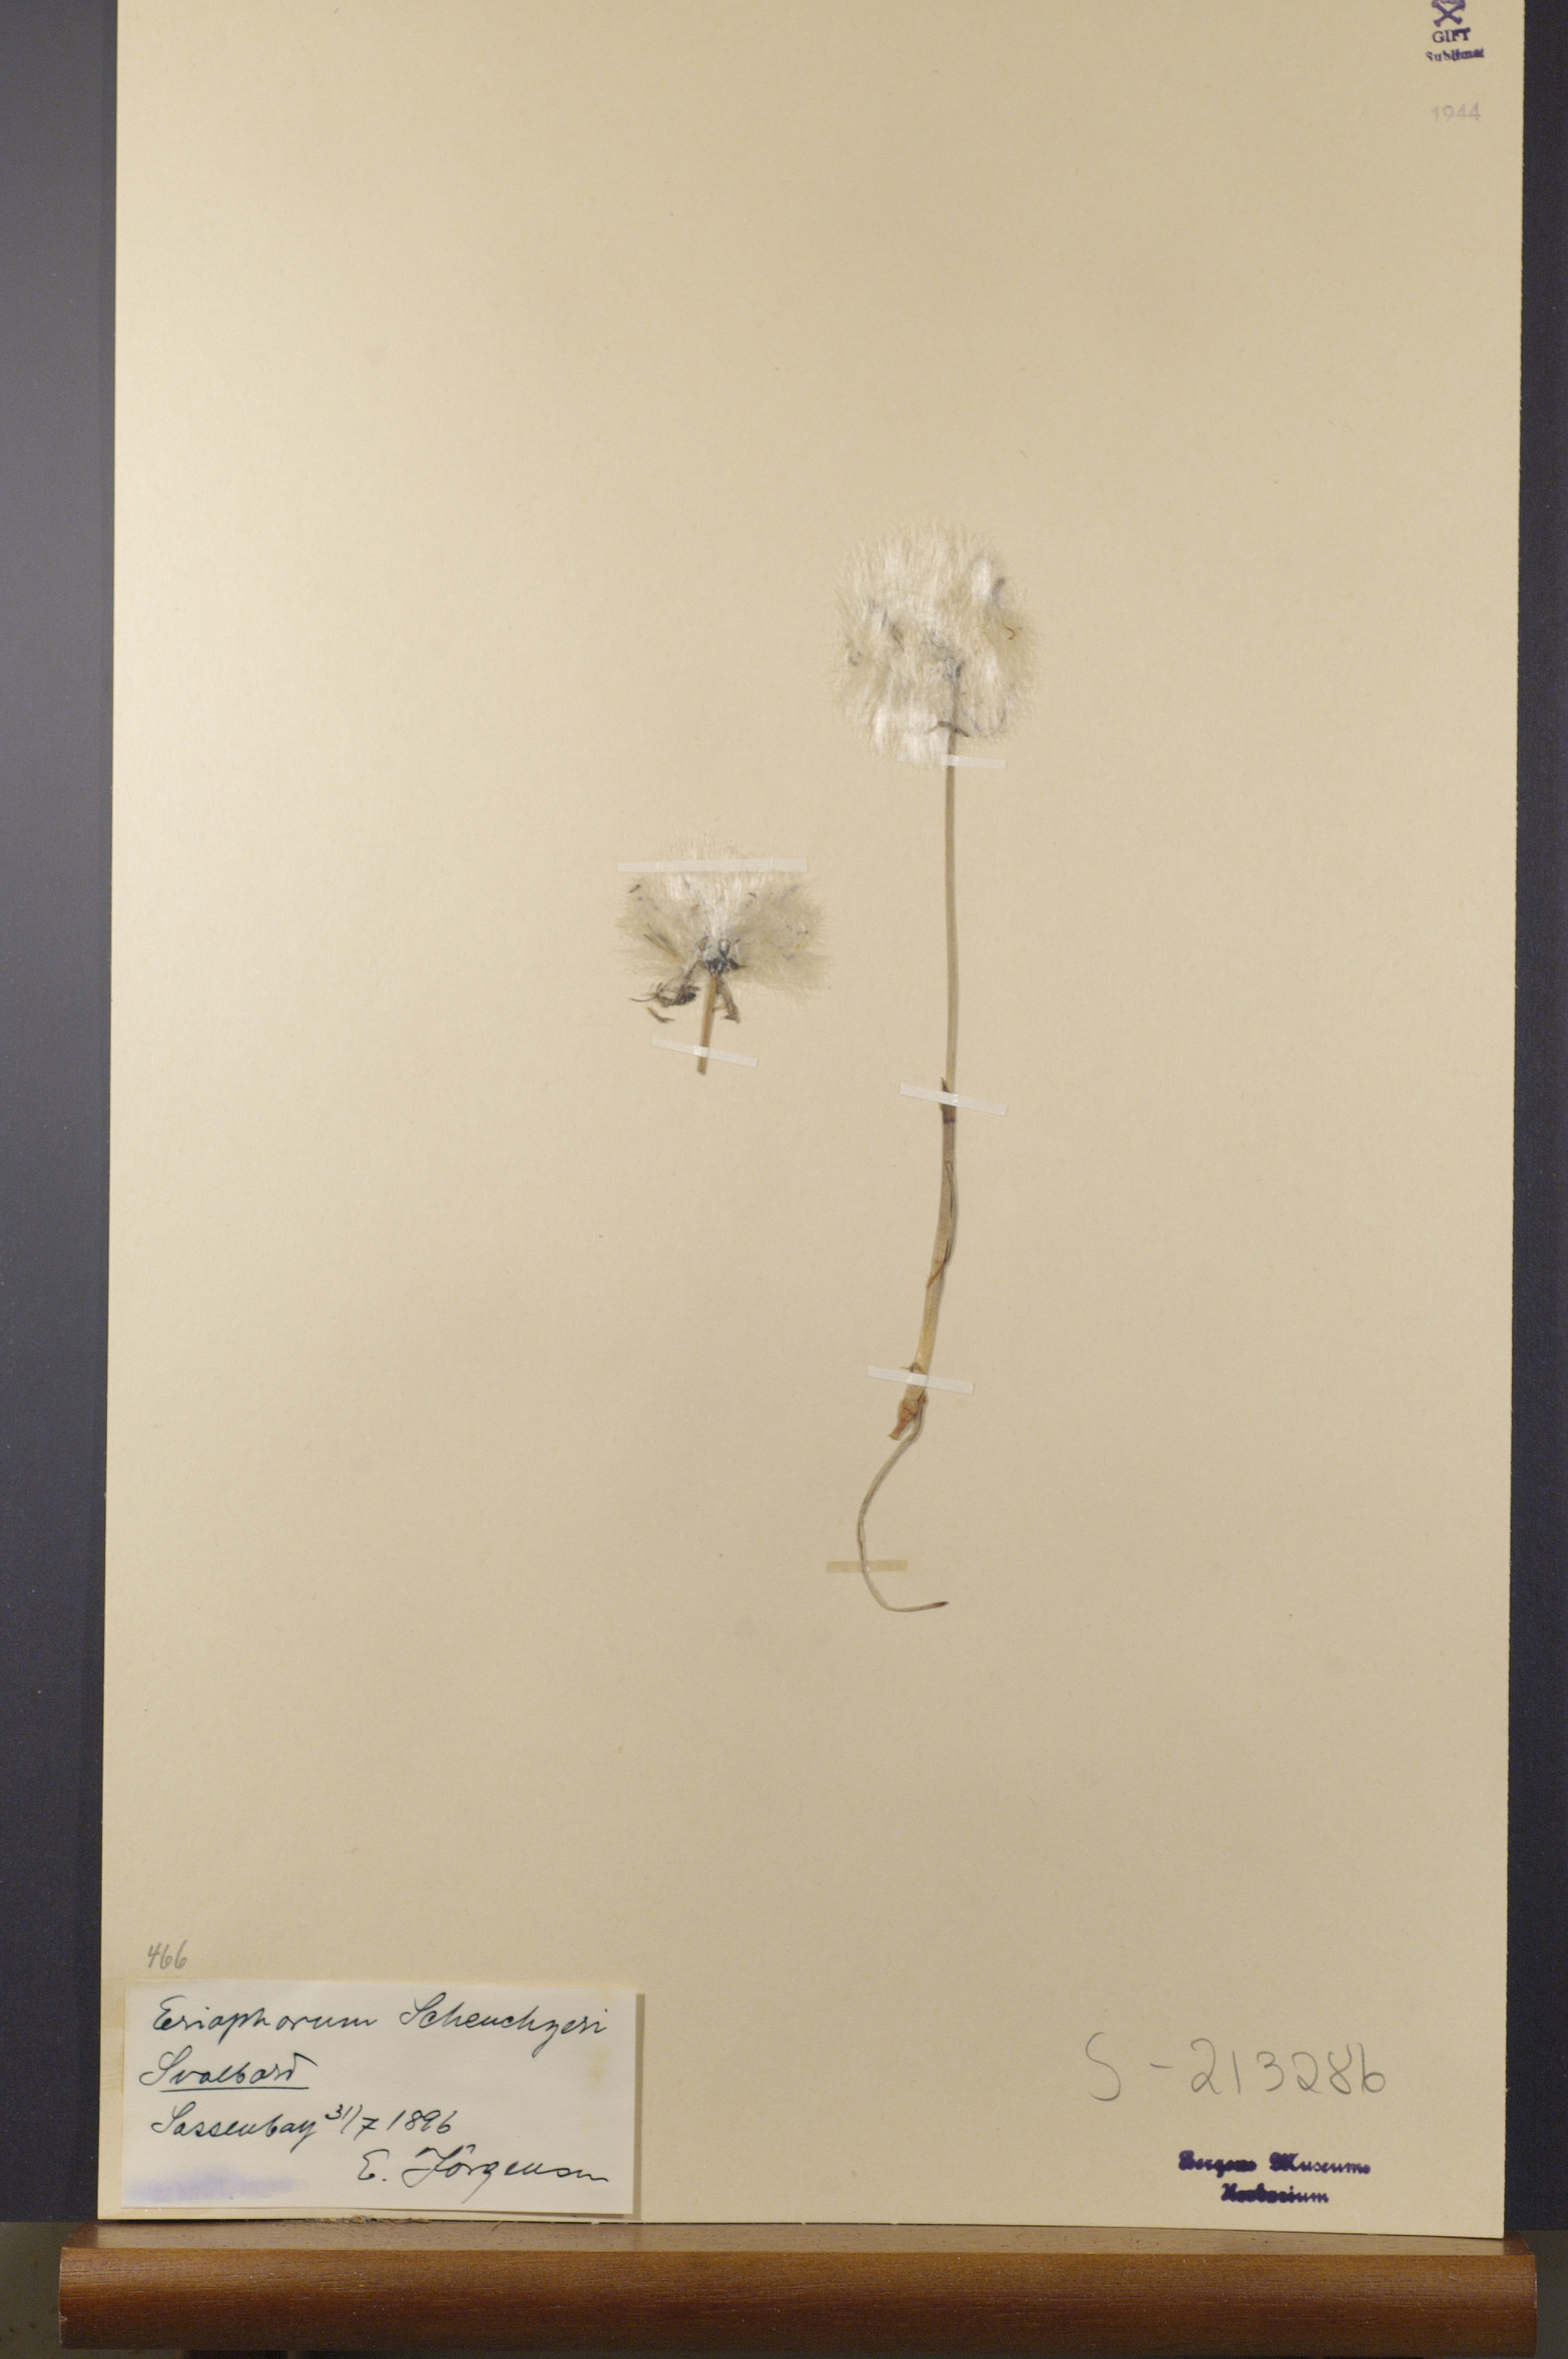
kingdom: Plantae
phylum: Tracheophyta
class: Liliopsida
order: Poales
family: Cyperaceae
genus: Eriophorum
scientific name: Eriophorum scheuchzeri
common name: Scheuchzer's cottongrass
